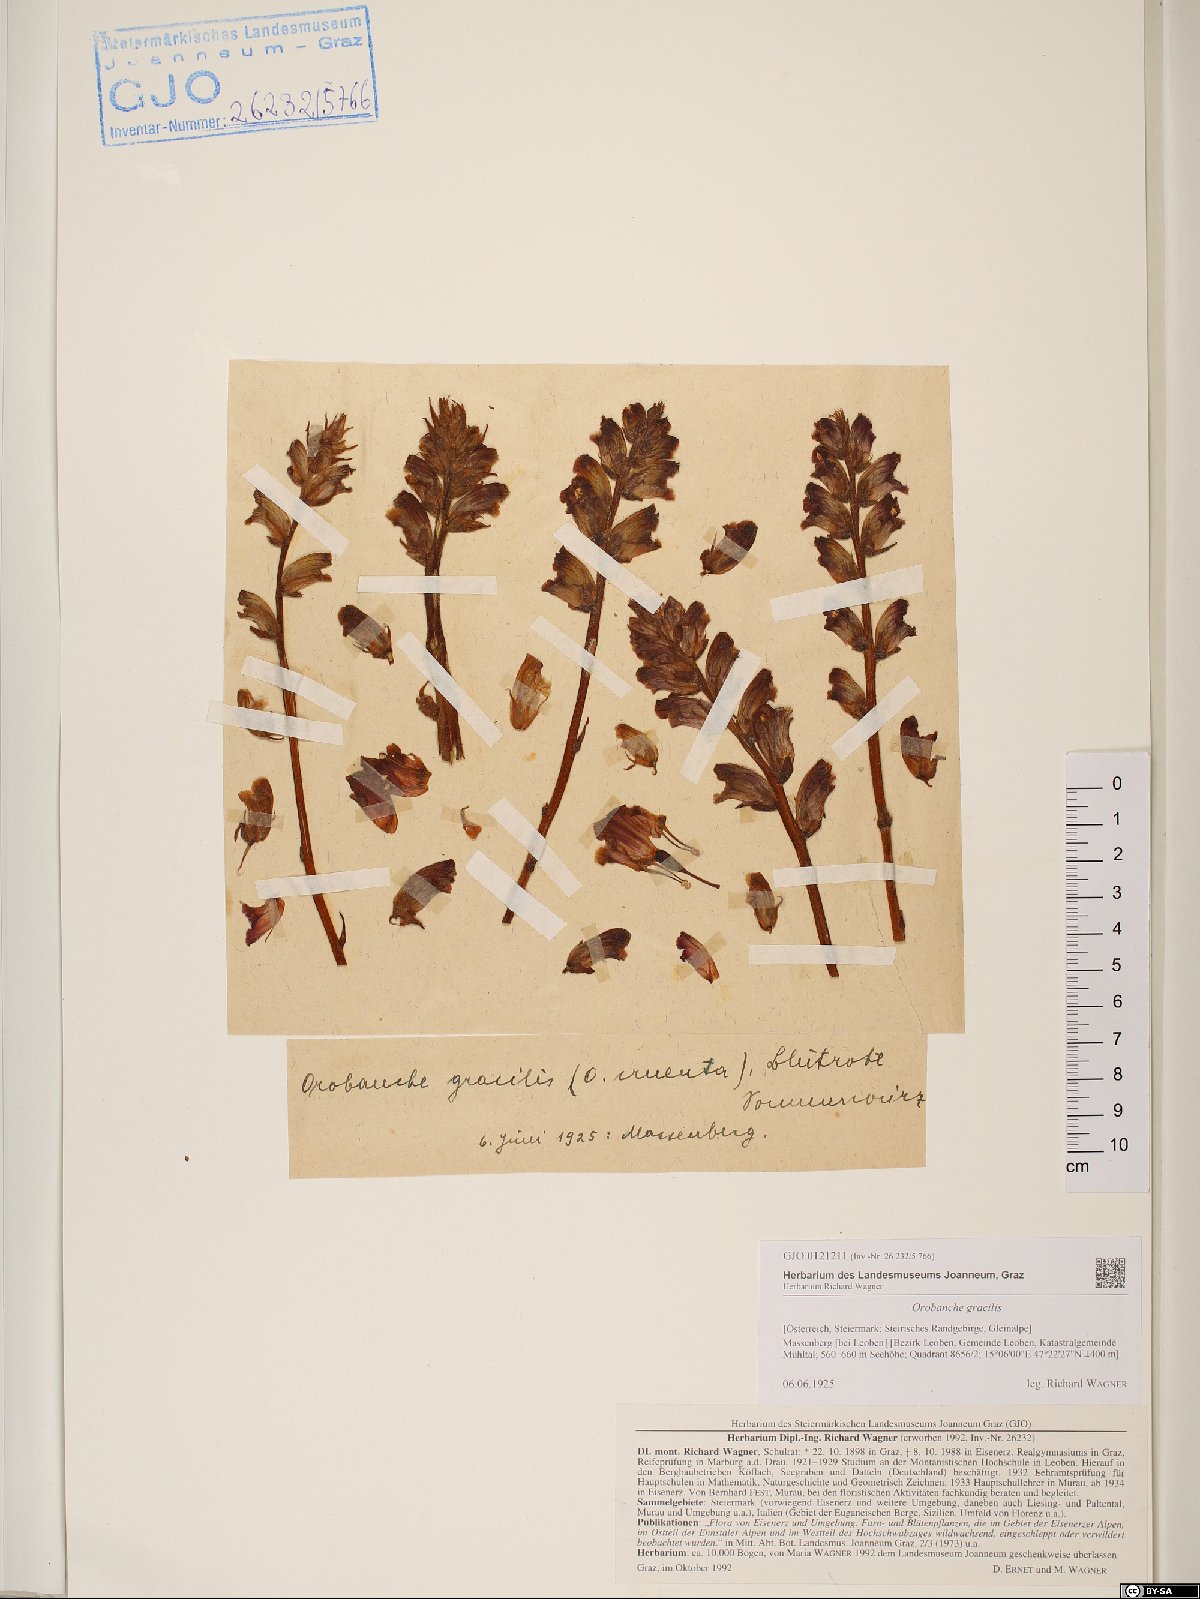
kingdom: Plantae
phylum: Tracheophyta
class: Magnoliopsida
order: Lamiales
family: Orobanchaceae
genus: Orobanche
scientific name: Orobanche gracilis
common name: Slender broomrape
